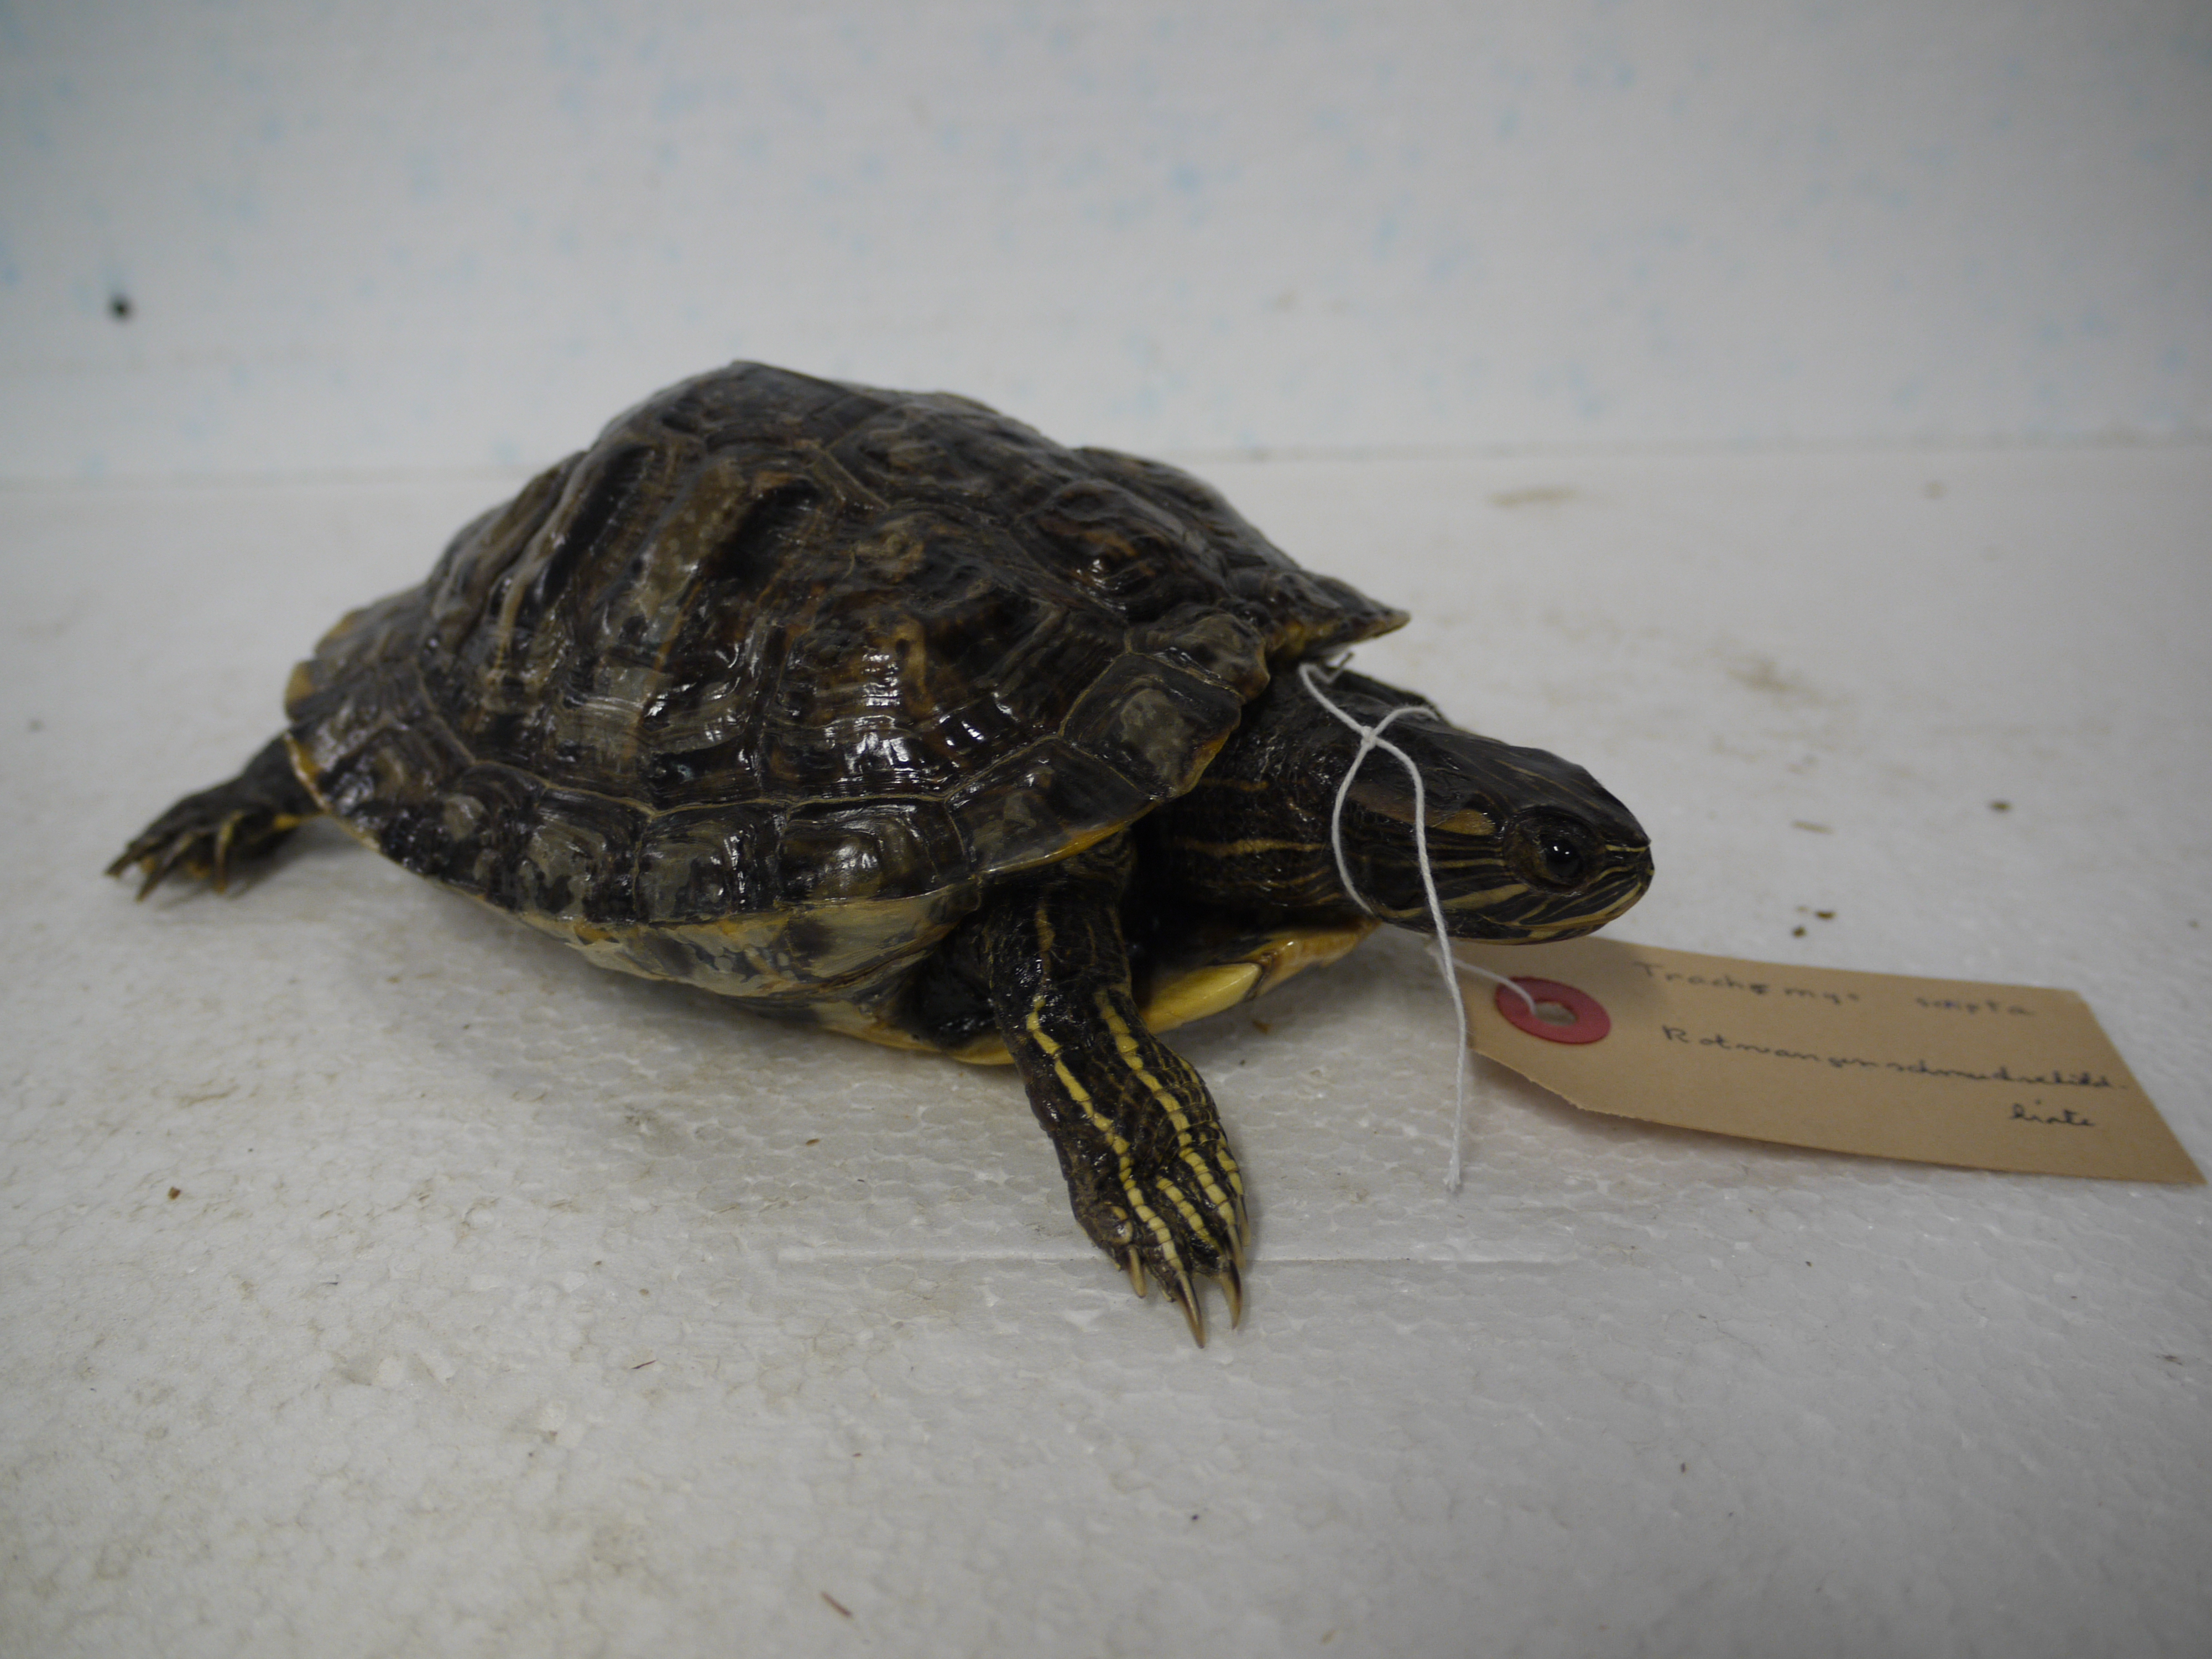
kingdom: Animalia
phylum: Chordata
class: Testudines
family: Emydidae
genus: Trachemys
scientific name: Trachemys scripta
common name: Slider
